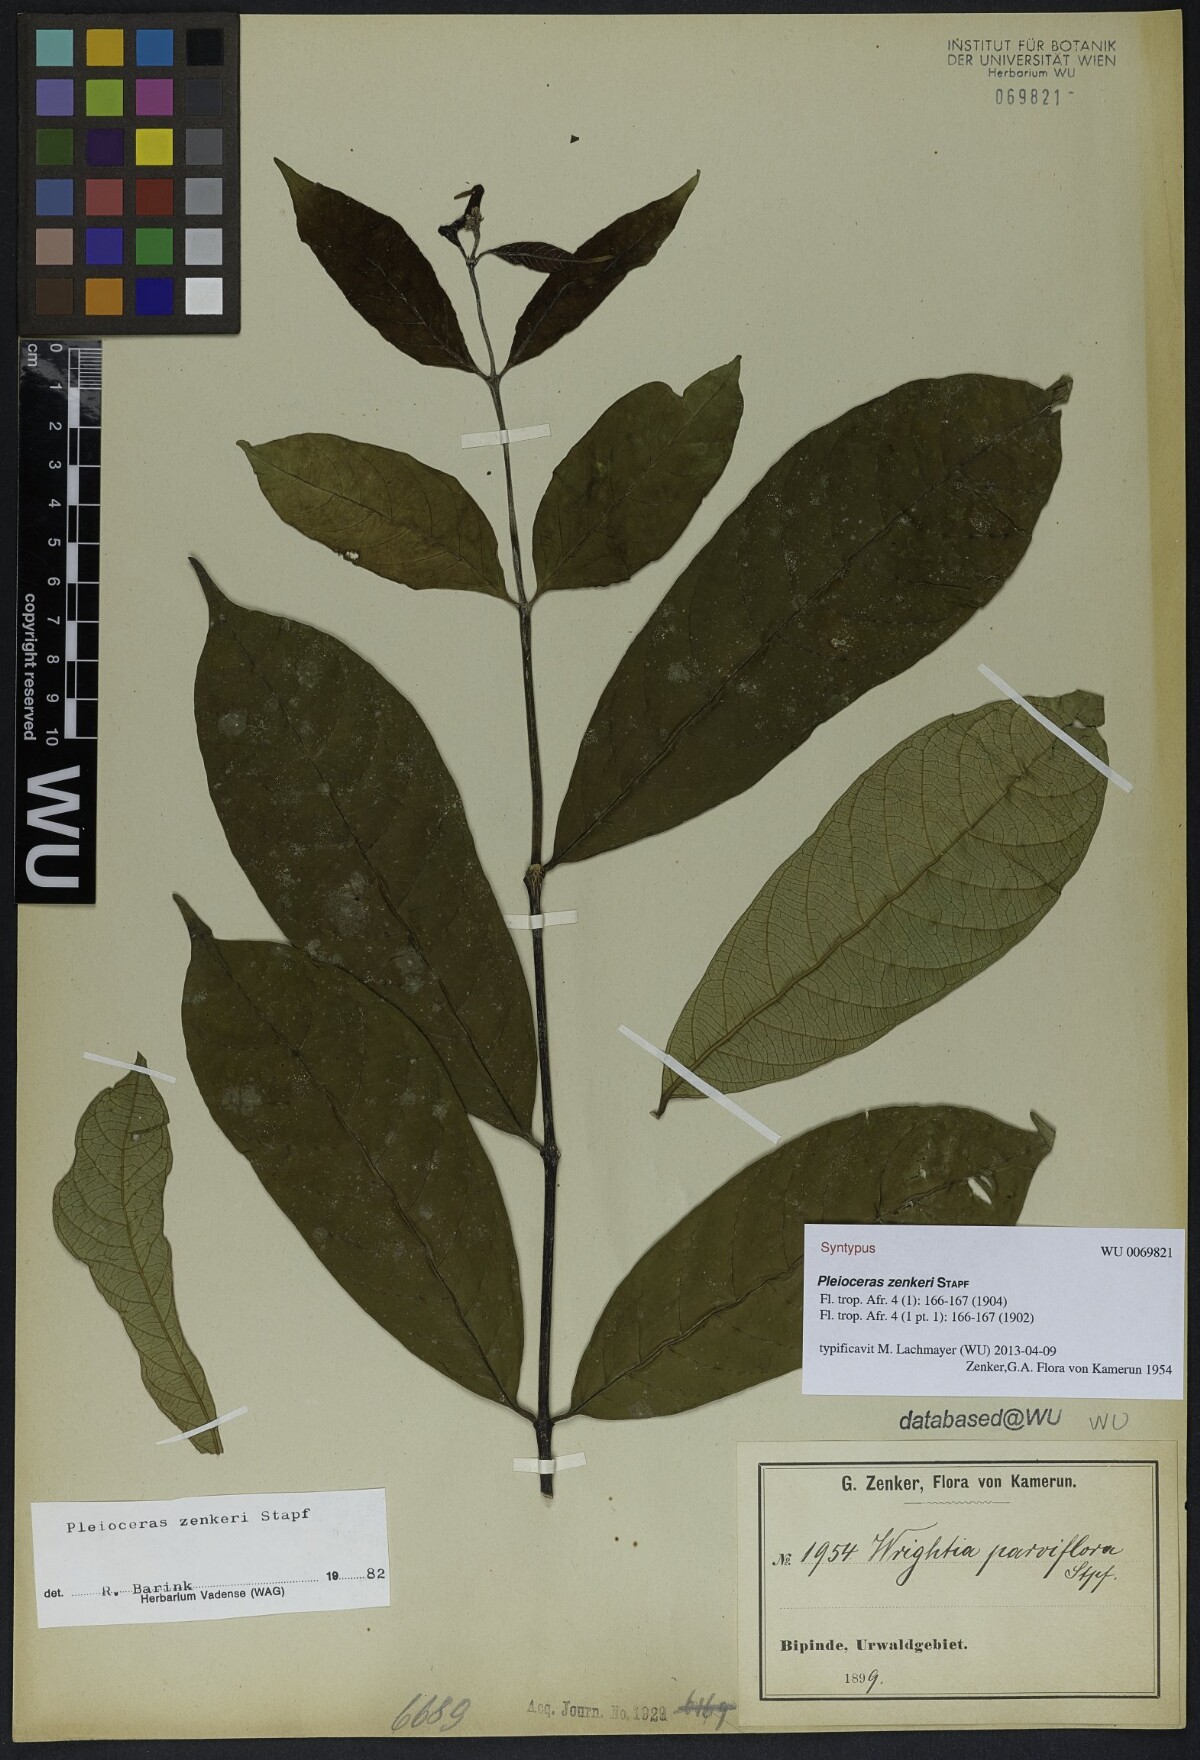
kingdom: Plantae
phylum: Tracheophyta
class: Magnoliopsida
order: Gentianales
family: Apocynaceae
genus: Pleioceras
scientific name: Pleioceras zenkeri
